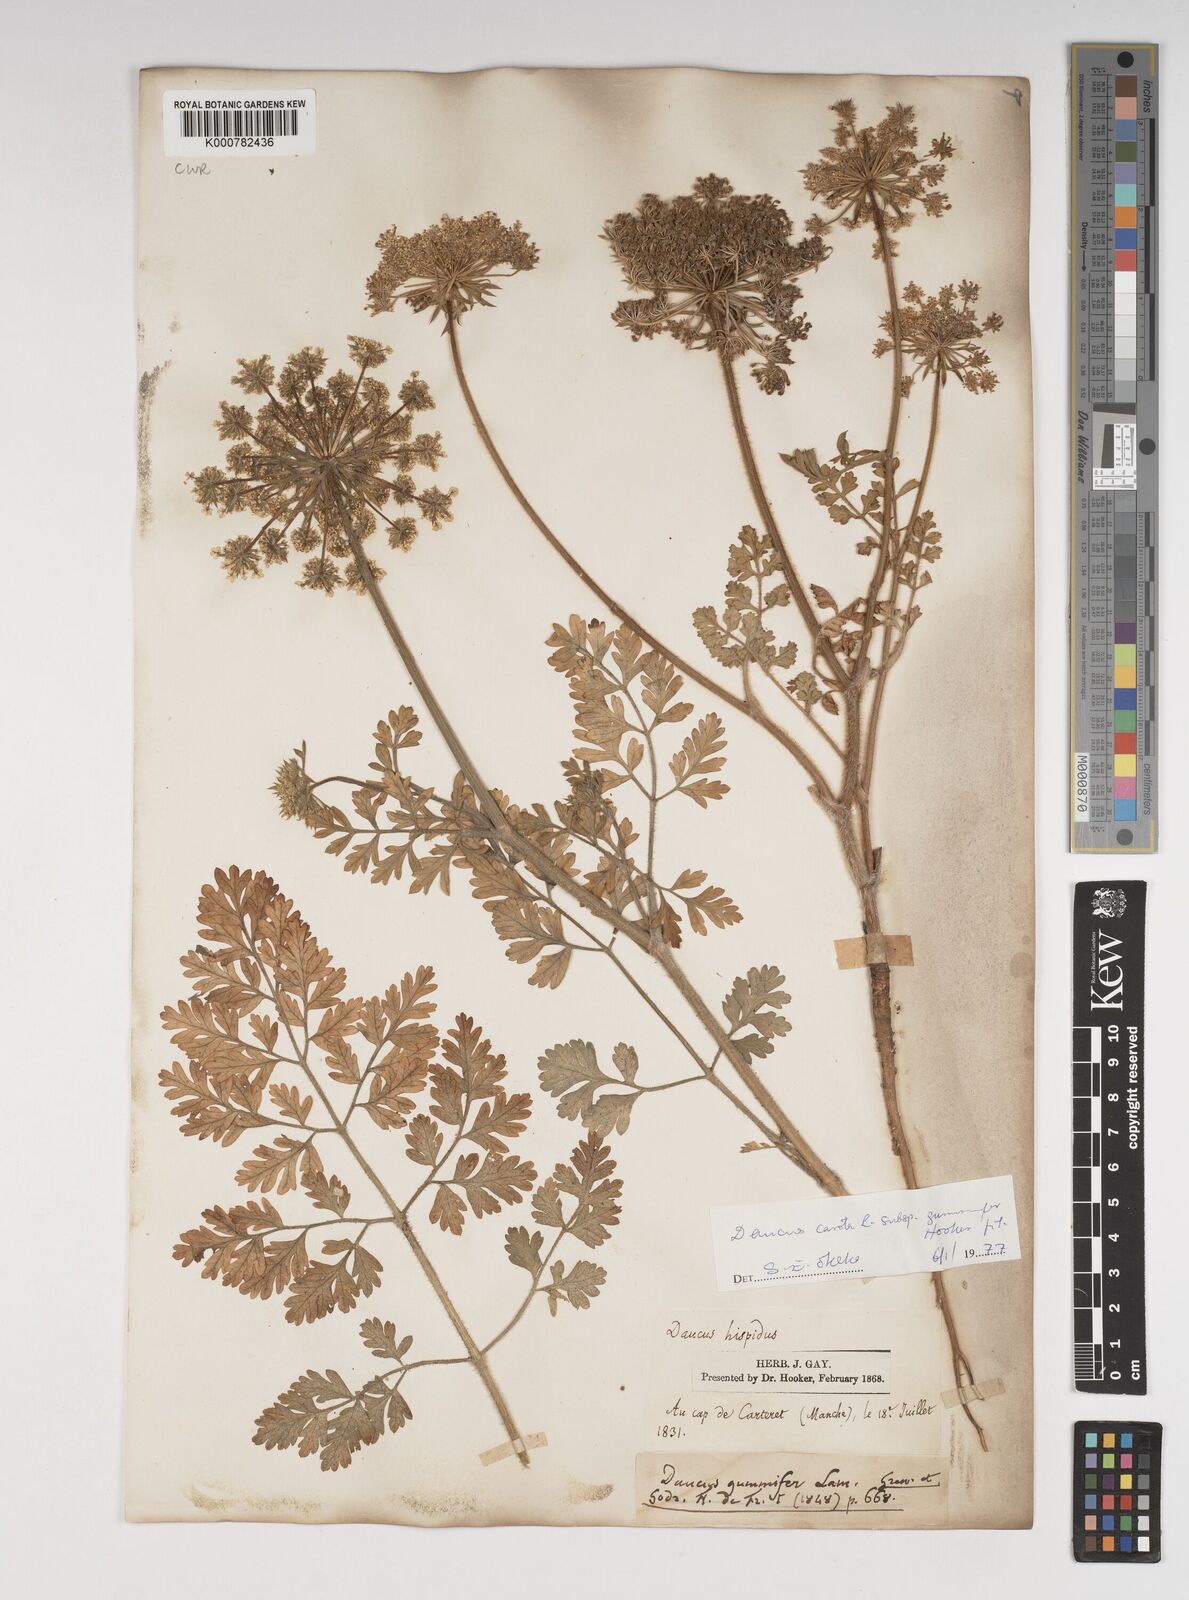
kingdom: Plantae
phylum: Tracheophyta
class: Magnoliopsida
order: Apiales
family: Apiaceae
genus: Daucus
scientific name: Daucus carota
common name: Wild carrot
